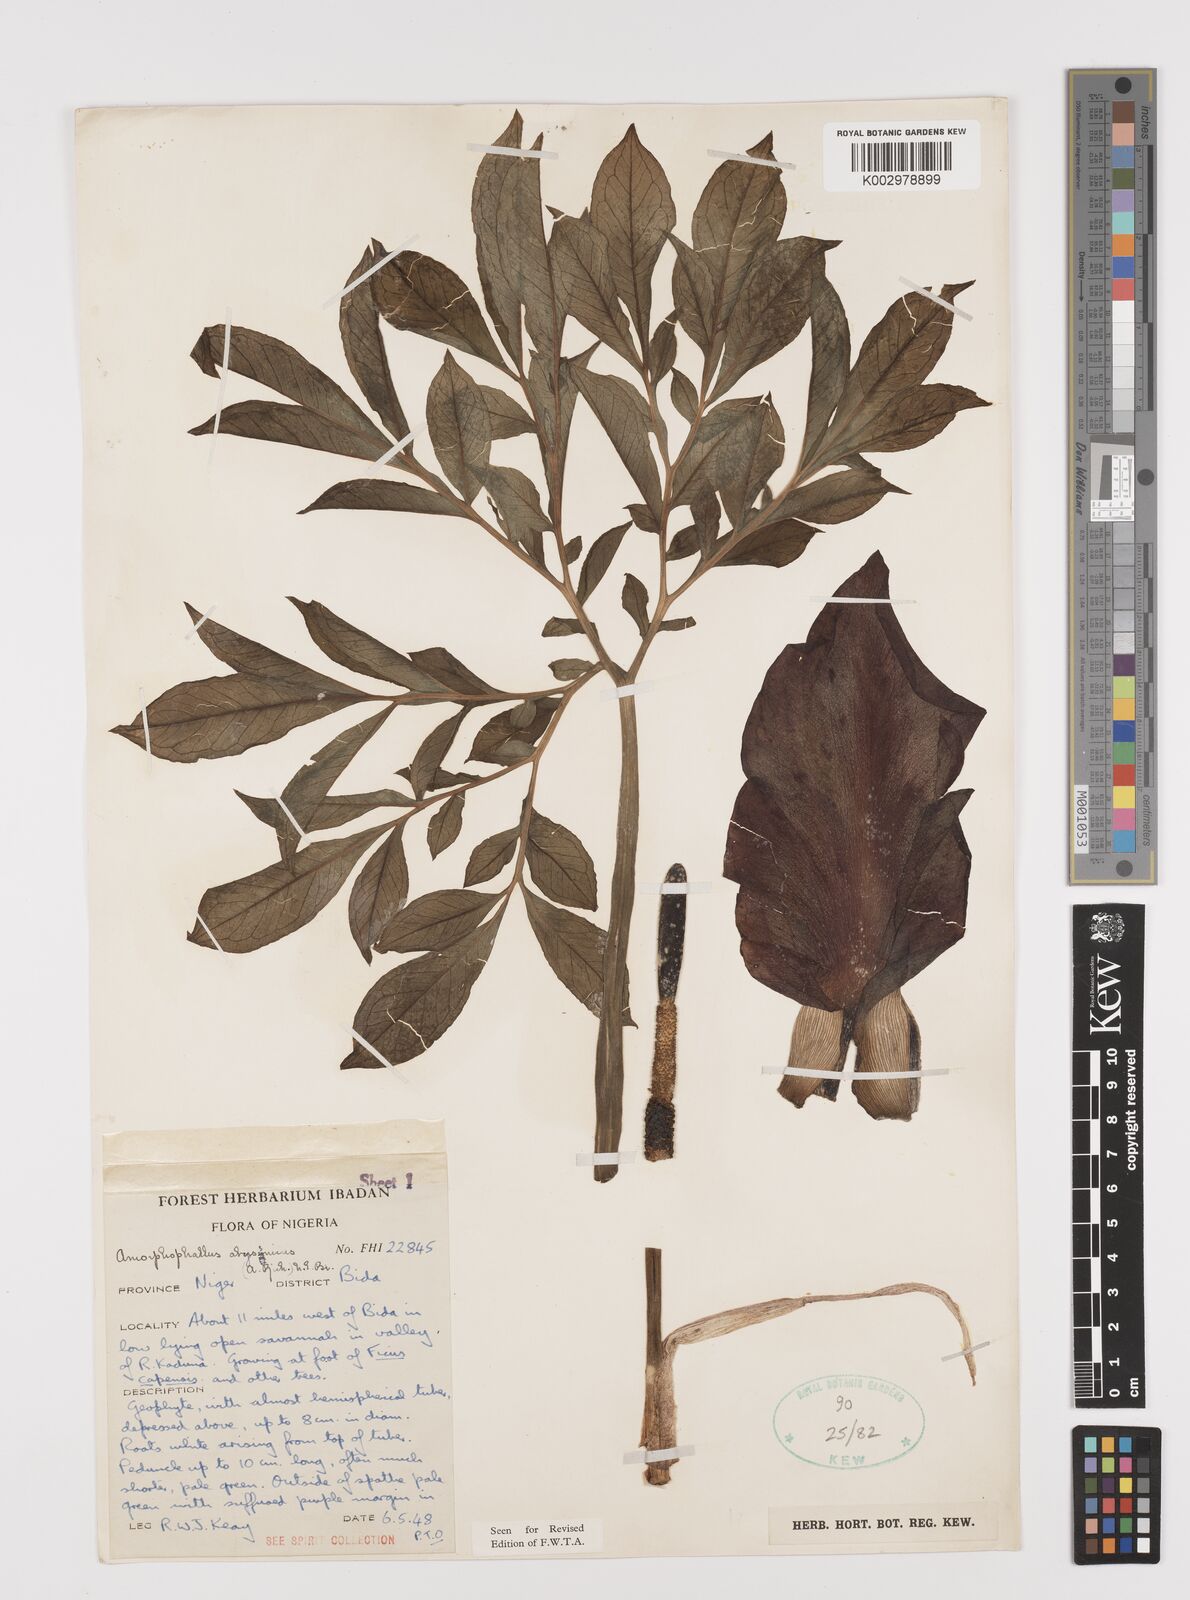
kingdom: Plantae
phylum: Tracheophyta
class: Liliopsida
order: Alismatales
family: Araceae
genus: Amorphophallus
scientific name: Amorphophallus abyssinicus
